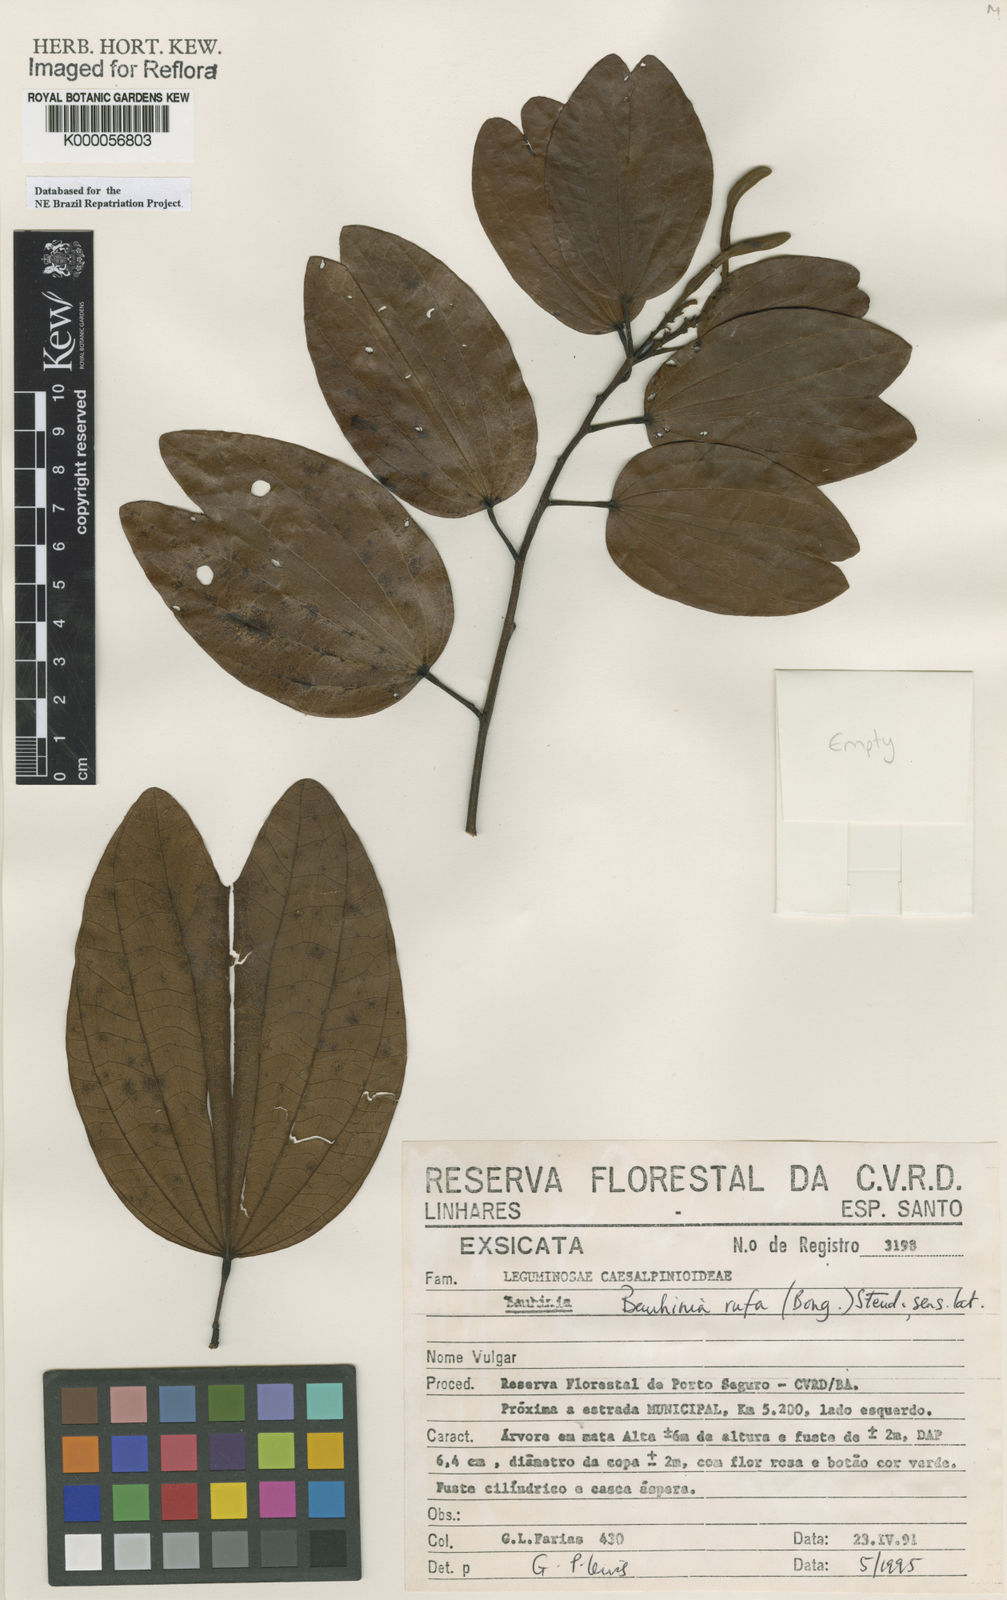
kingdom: Plantae
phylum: Tracheophyta
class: Magnoliopsida
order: Fabales
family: Fabaceae
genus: Bauhinia
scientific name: Bauhinia rufa
